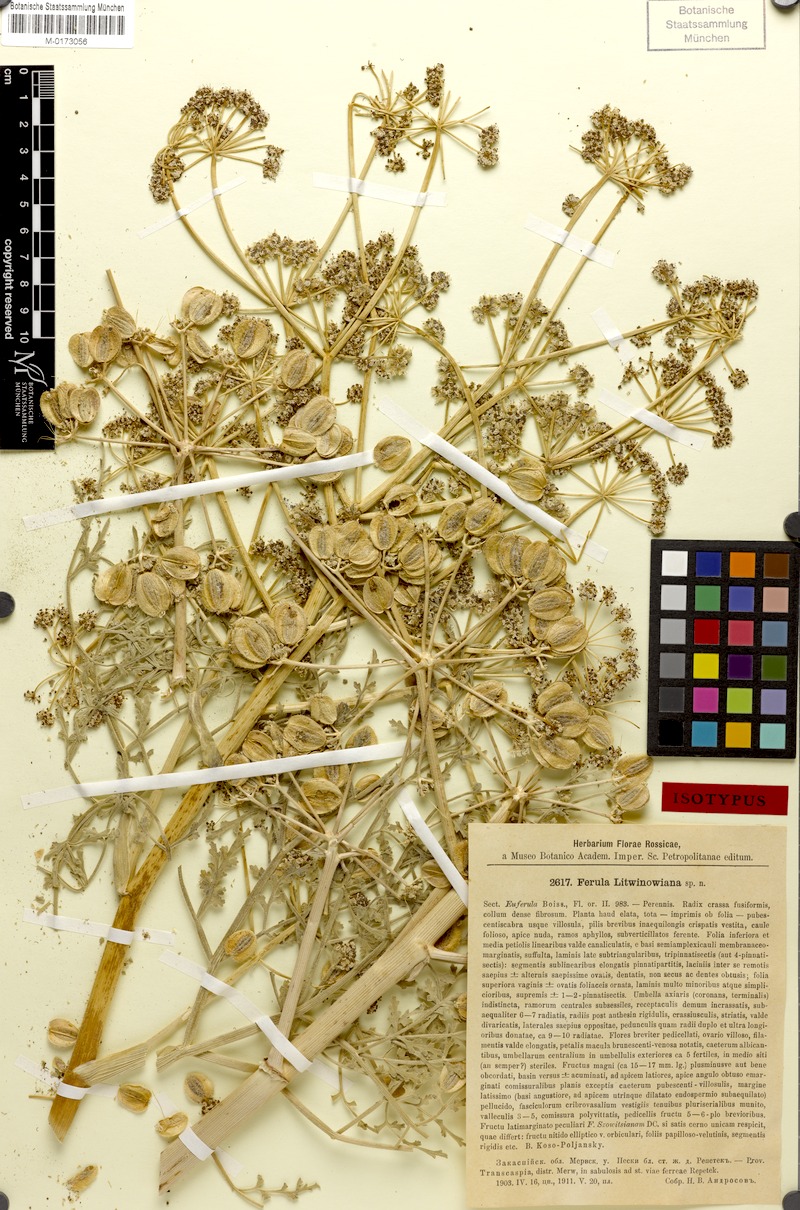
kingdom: Plantae
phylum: Tracheophyta
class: Magnoliopsida
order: Apiales
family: Apiaceae
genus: Ferula
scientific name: Ferula litwinowiana
